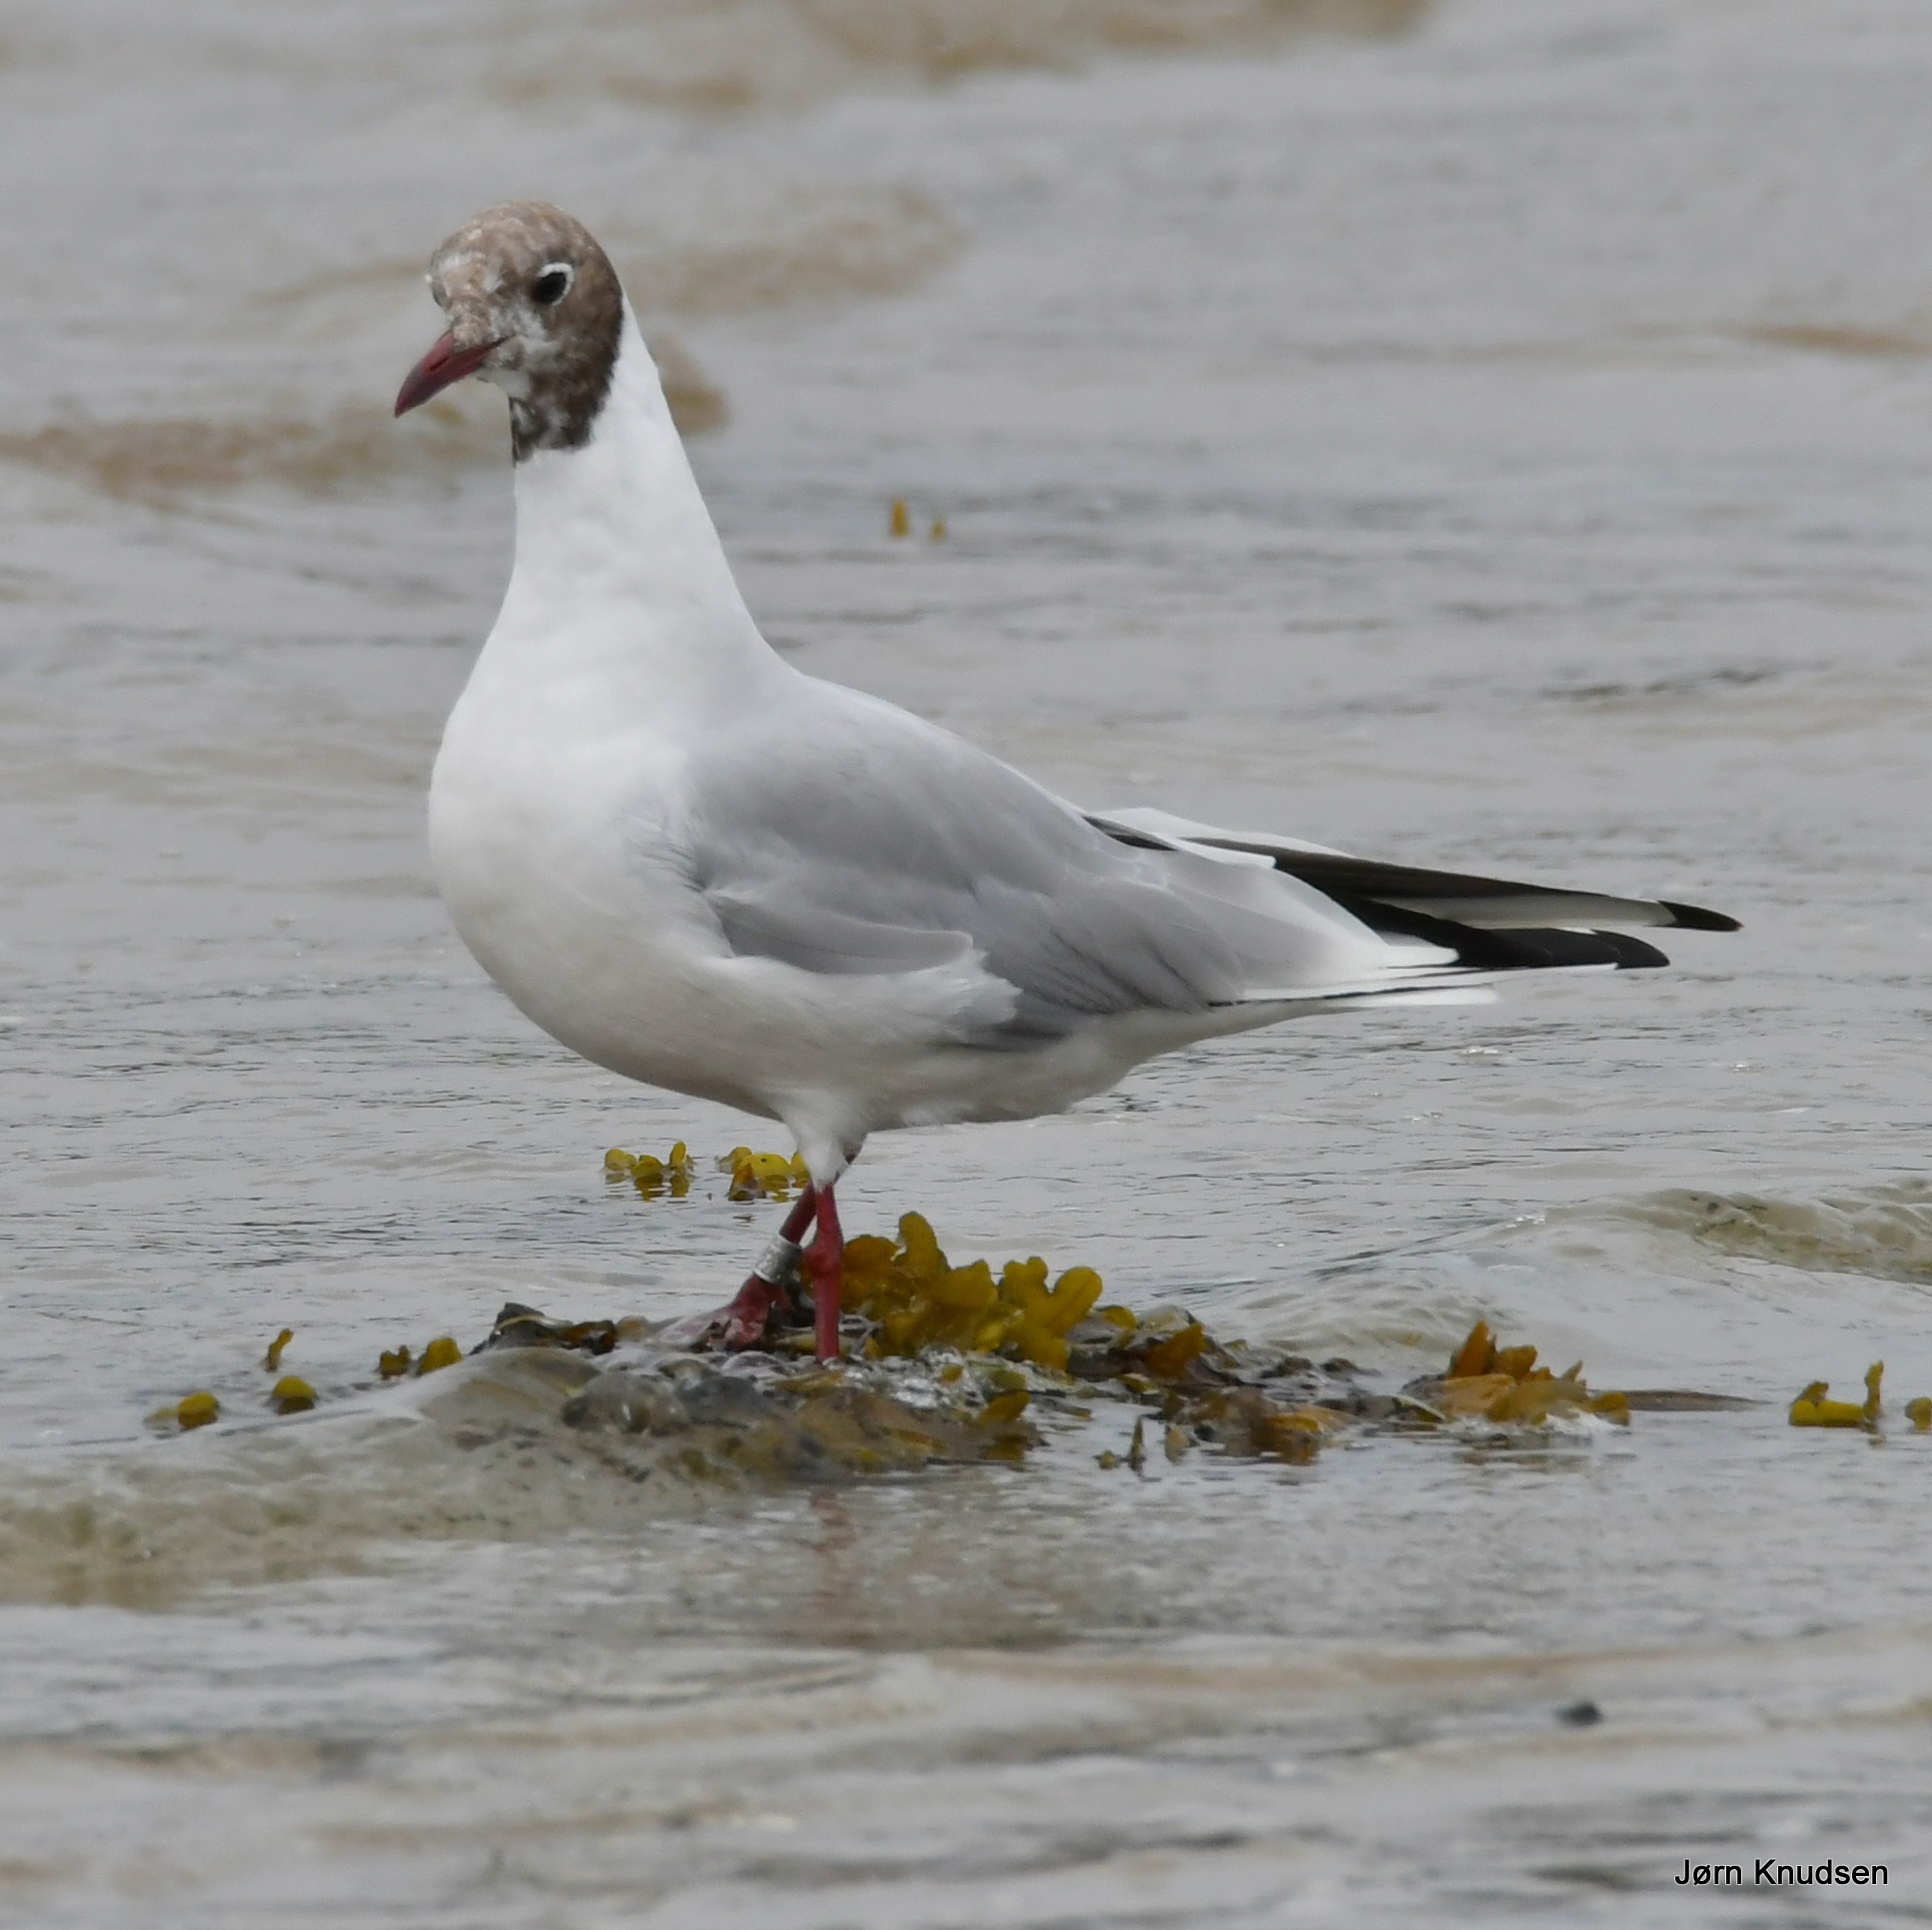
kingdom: Animalia
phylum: Chordata
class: Aves
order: Charadriiformes
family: Laridae
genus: Chroicocephalus
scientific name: Chroicocephalus ridibundus
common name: Hættemåge
